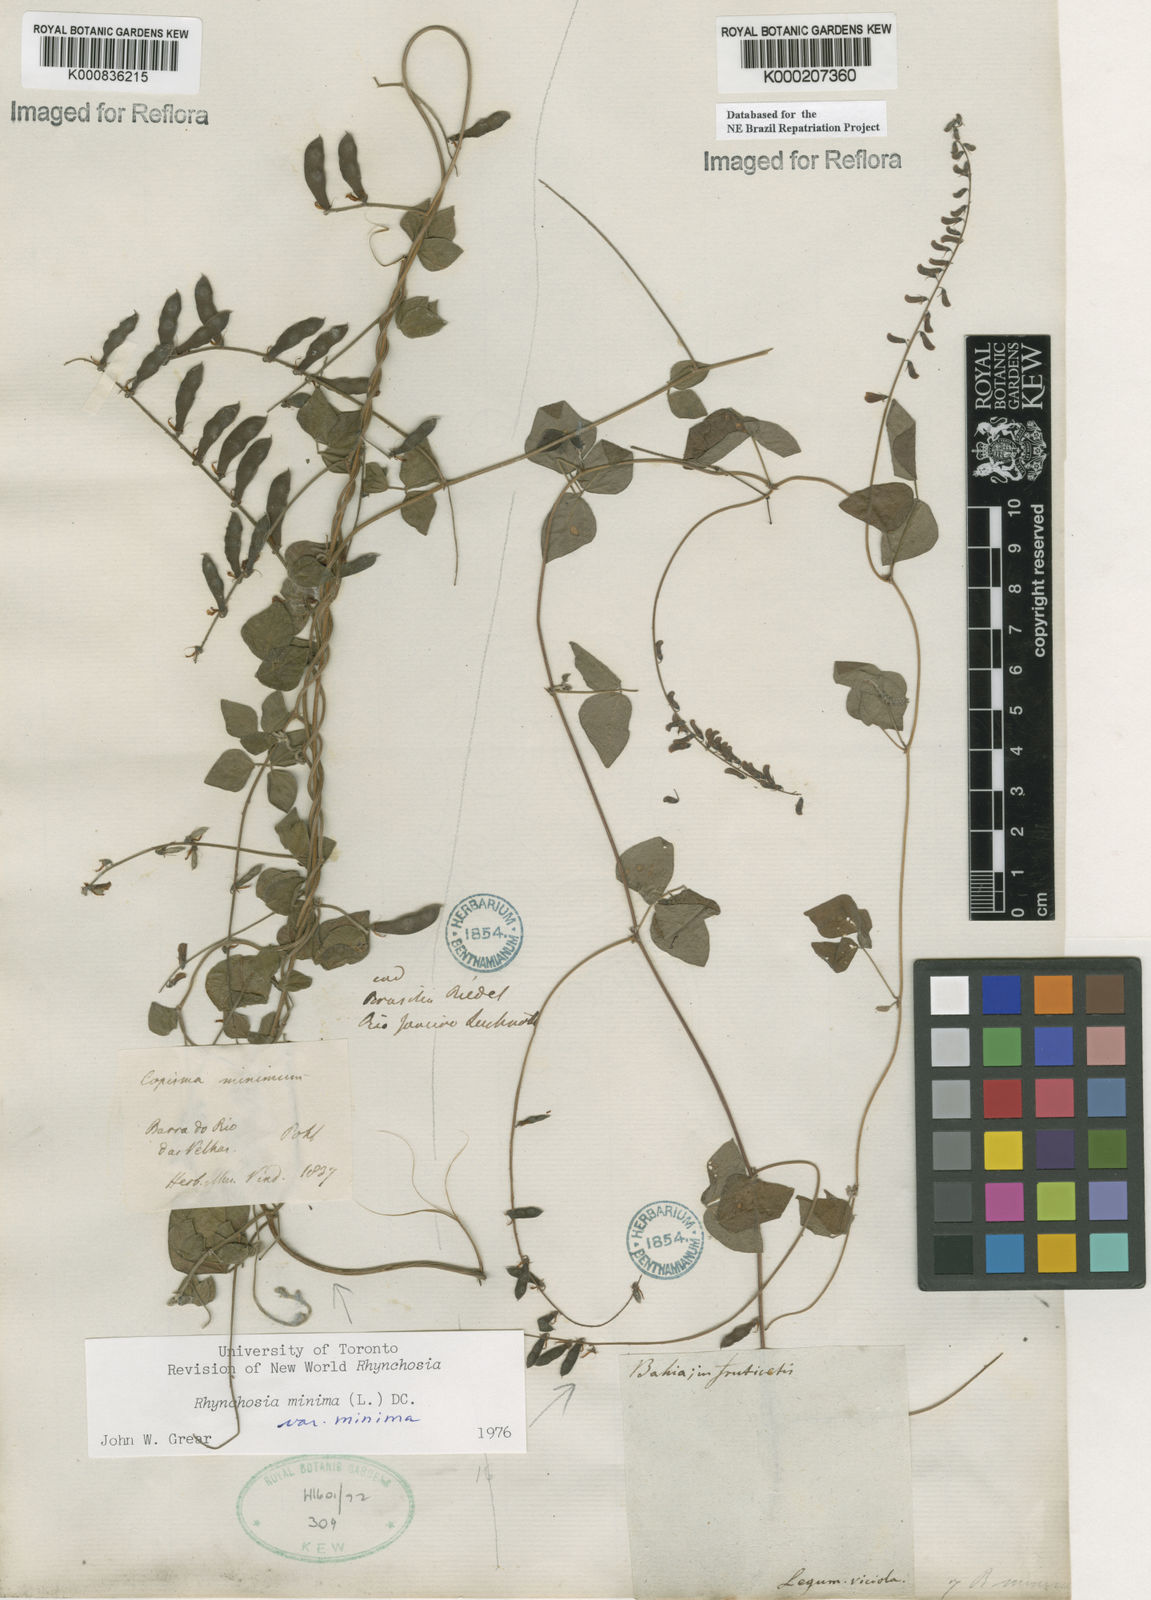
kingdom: Plantae
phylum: Tracheophyta
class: Magnoliopsida
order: Fabales
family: Fabaceae
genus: Rhynchosia
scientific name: Rhynchosia minima
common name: Least snoutbean
